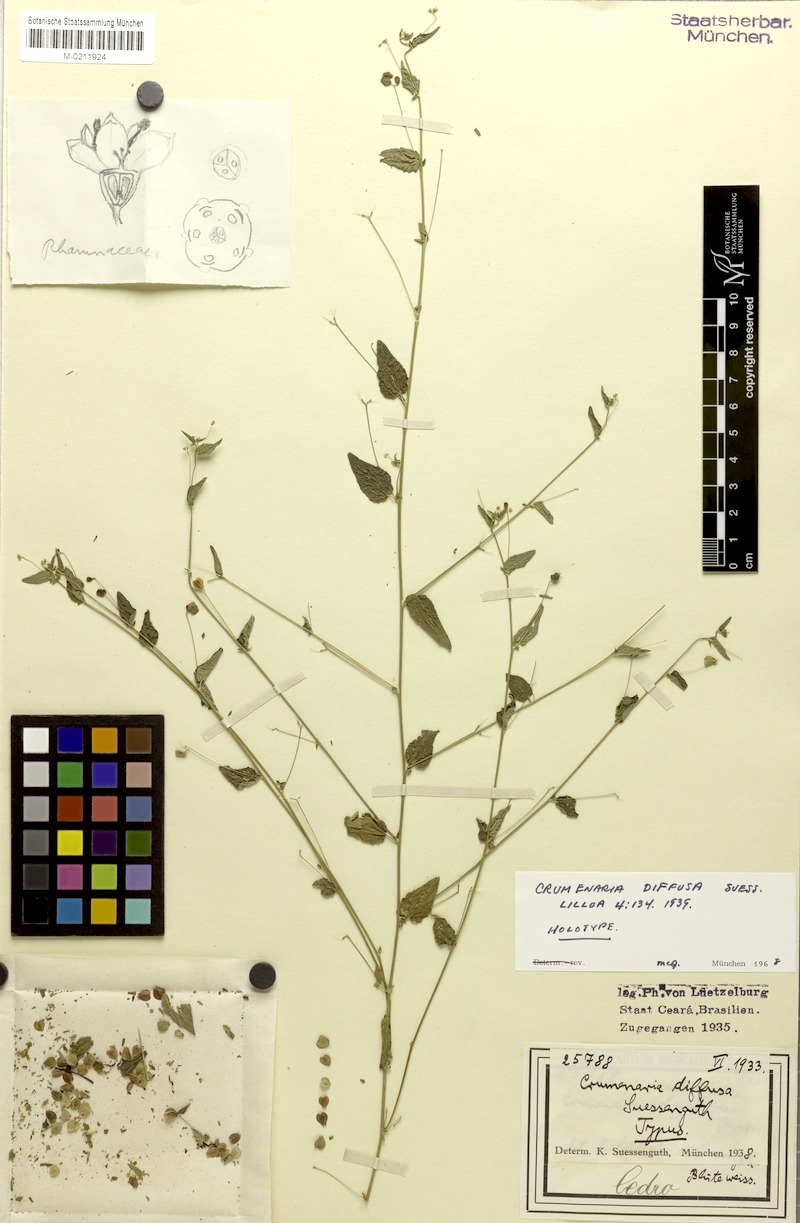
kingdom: Plantae
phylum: Tracheophyta
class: Magnoliopsida
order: Rosales
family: Rhamnaceae
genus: Crumenaria
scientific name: Crumenaria decumbens
